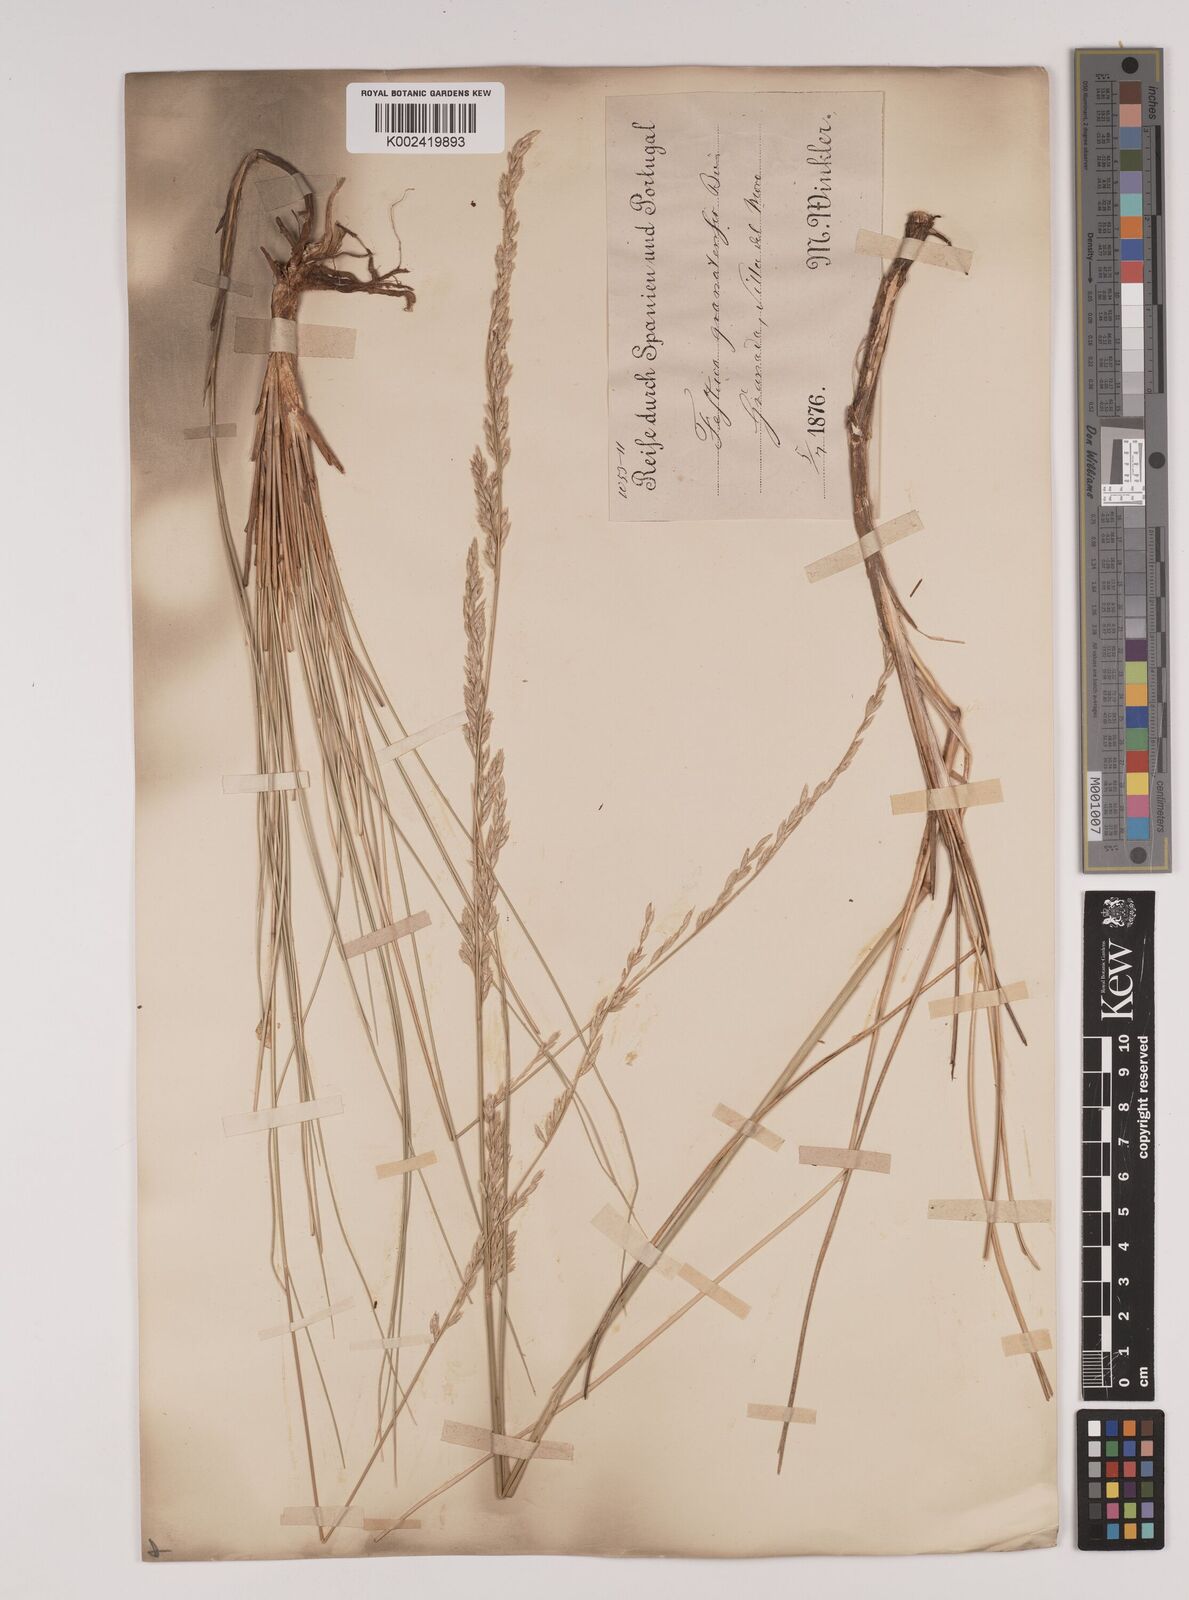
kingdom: Plantae
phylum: Tracheophyta
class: Liliopsida
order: Poales
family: Poaceae
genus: Festuca
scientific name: Festuca scariosa
